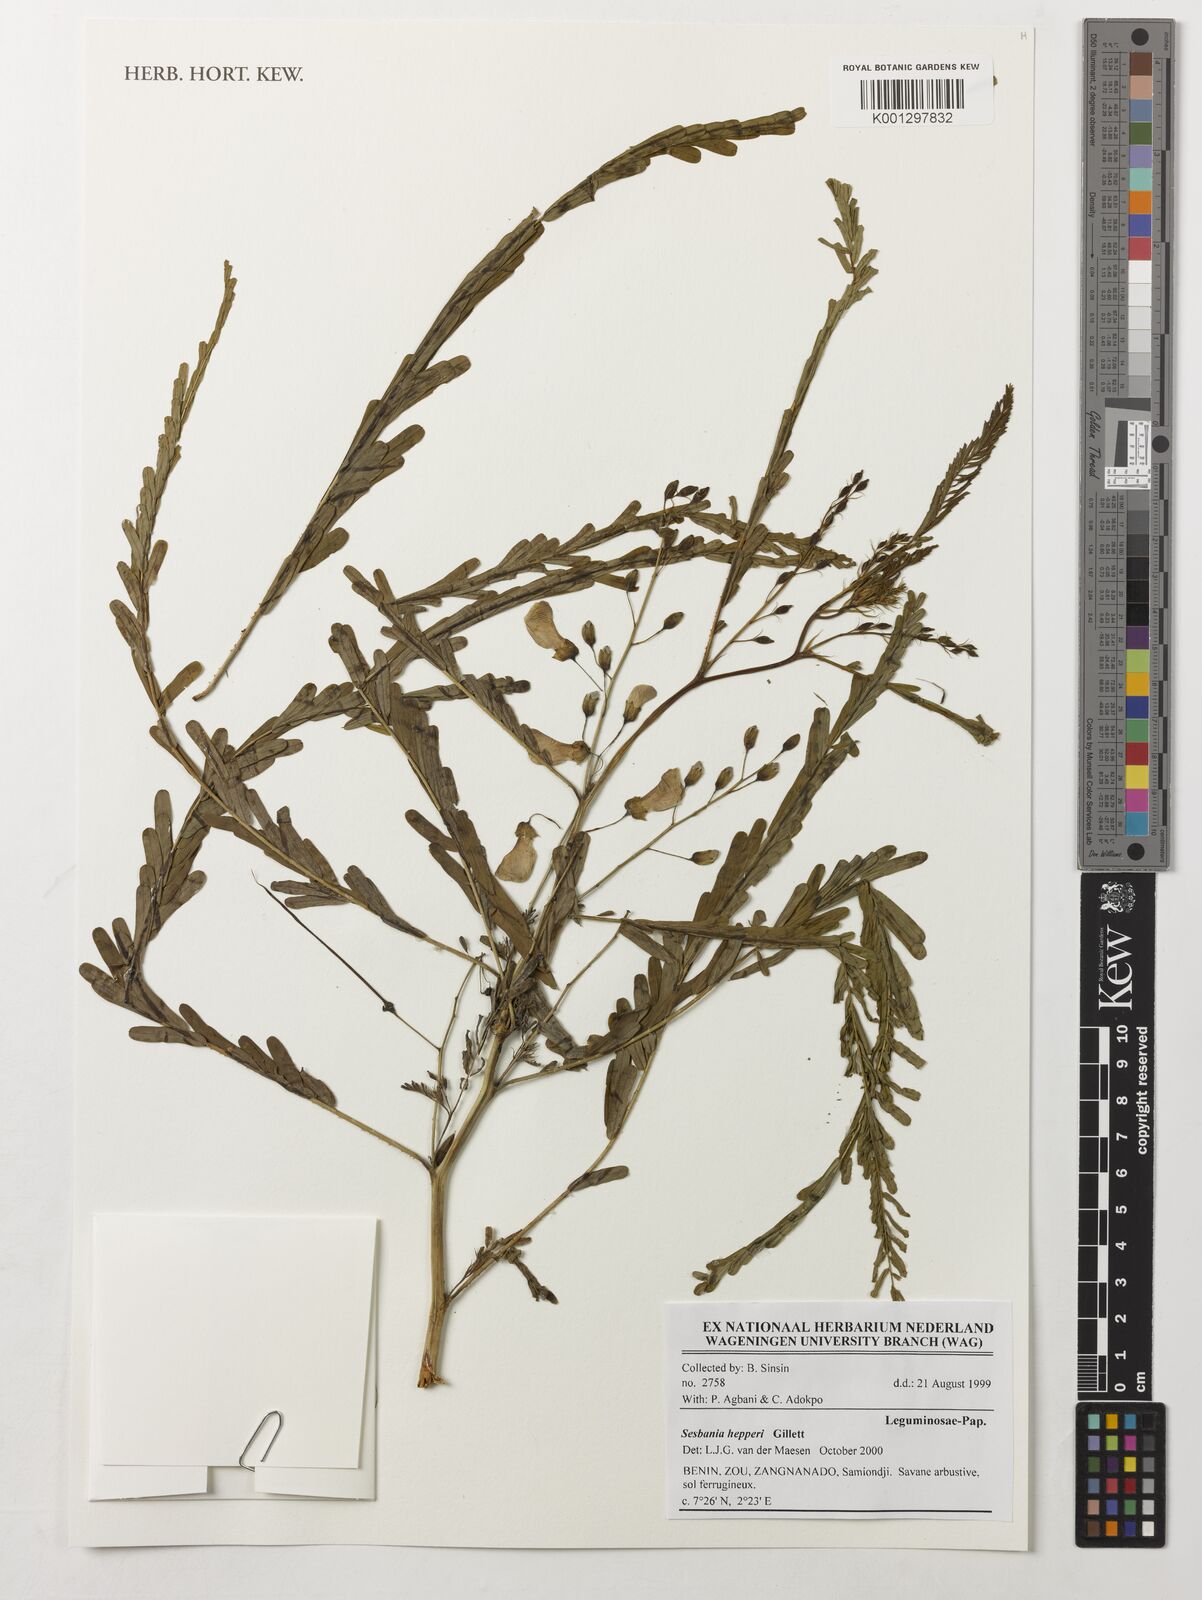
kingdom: Plantae
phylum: Tracheophyta
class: Magnoliopsida
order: Fabales
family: Fabaceae
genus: Sesbania
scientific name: Sesbania hepperi
